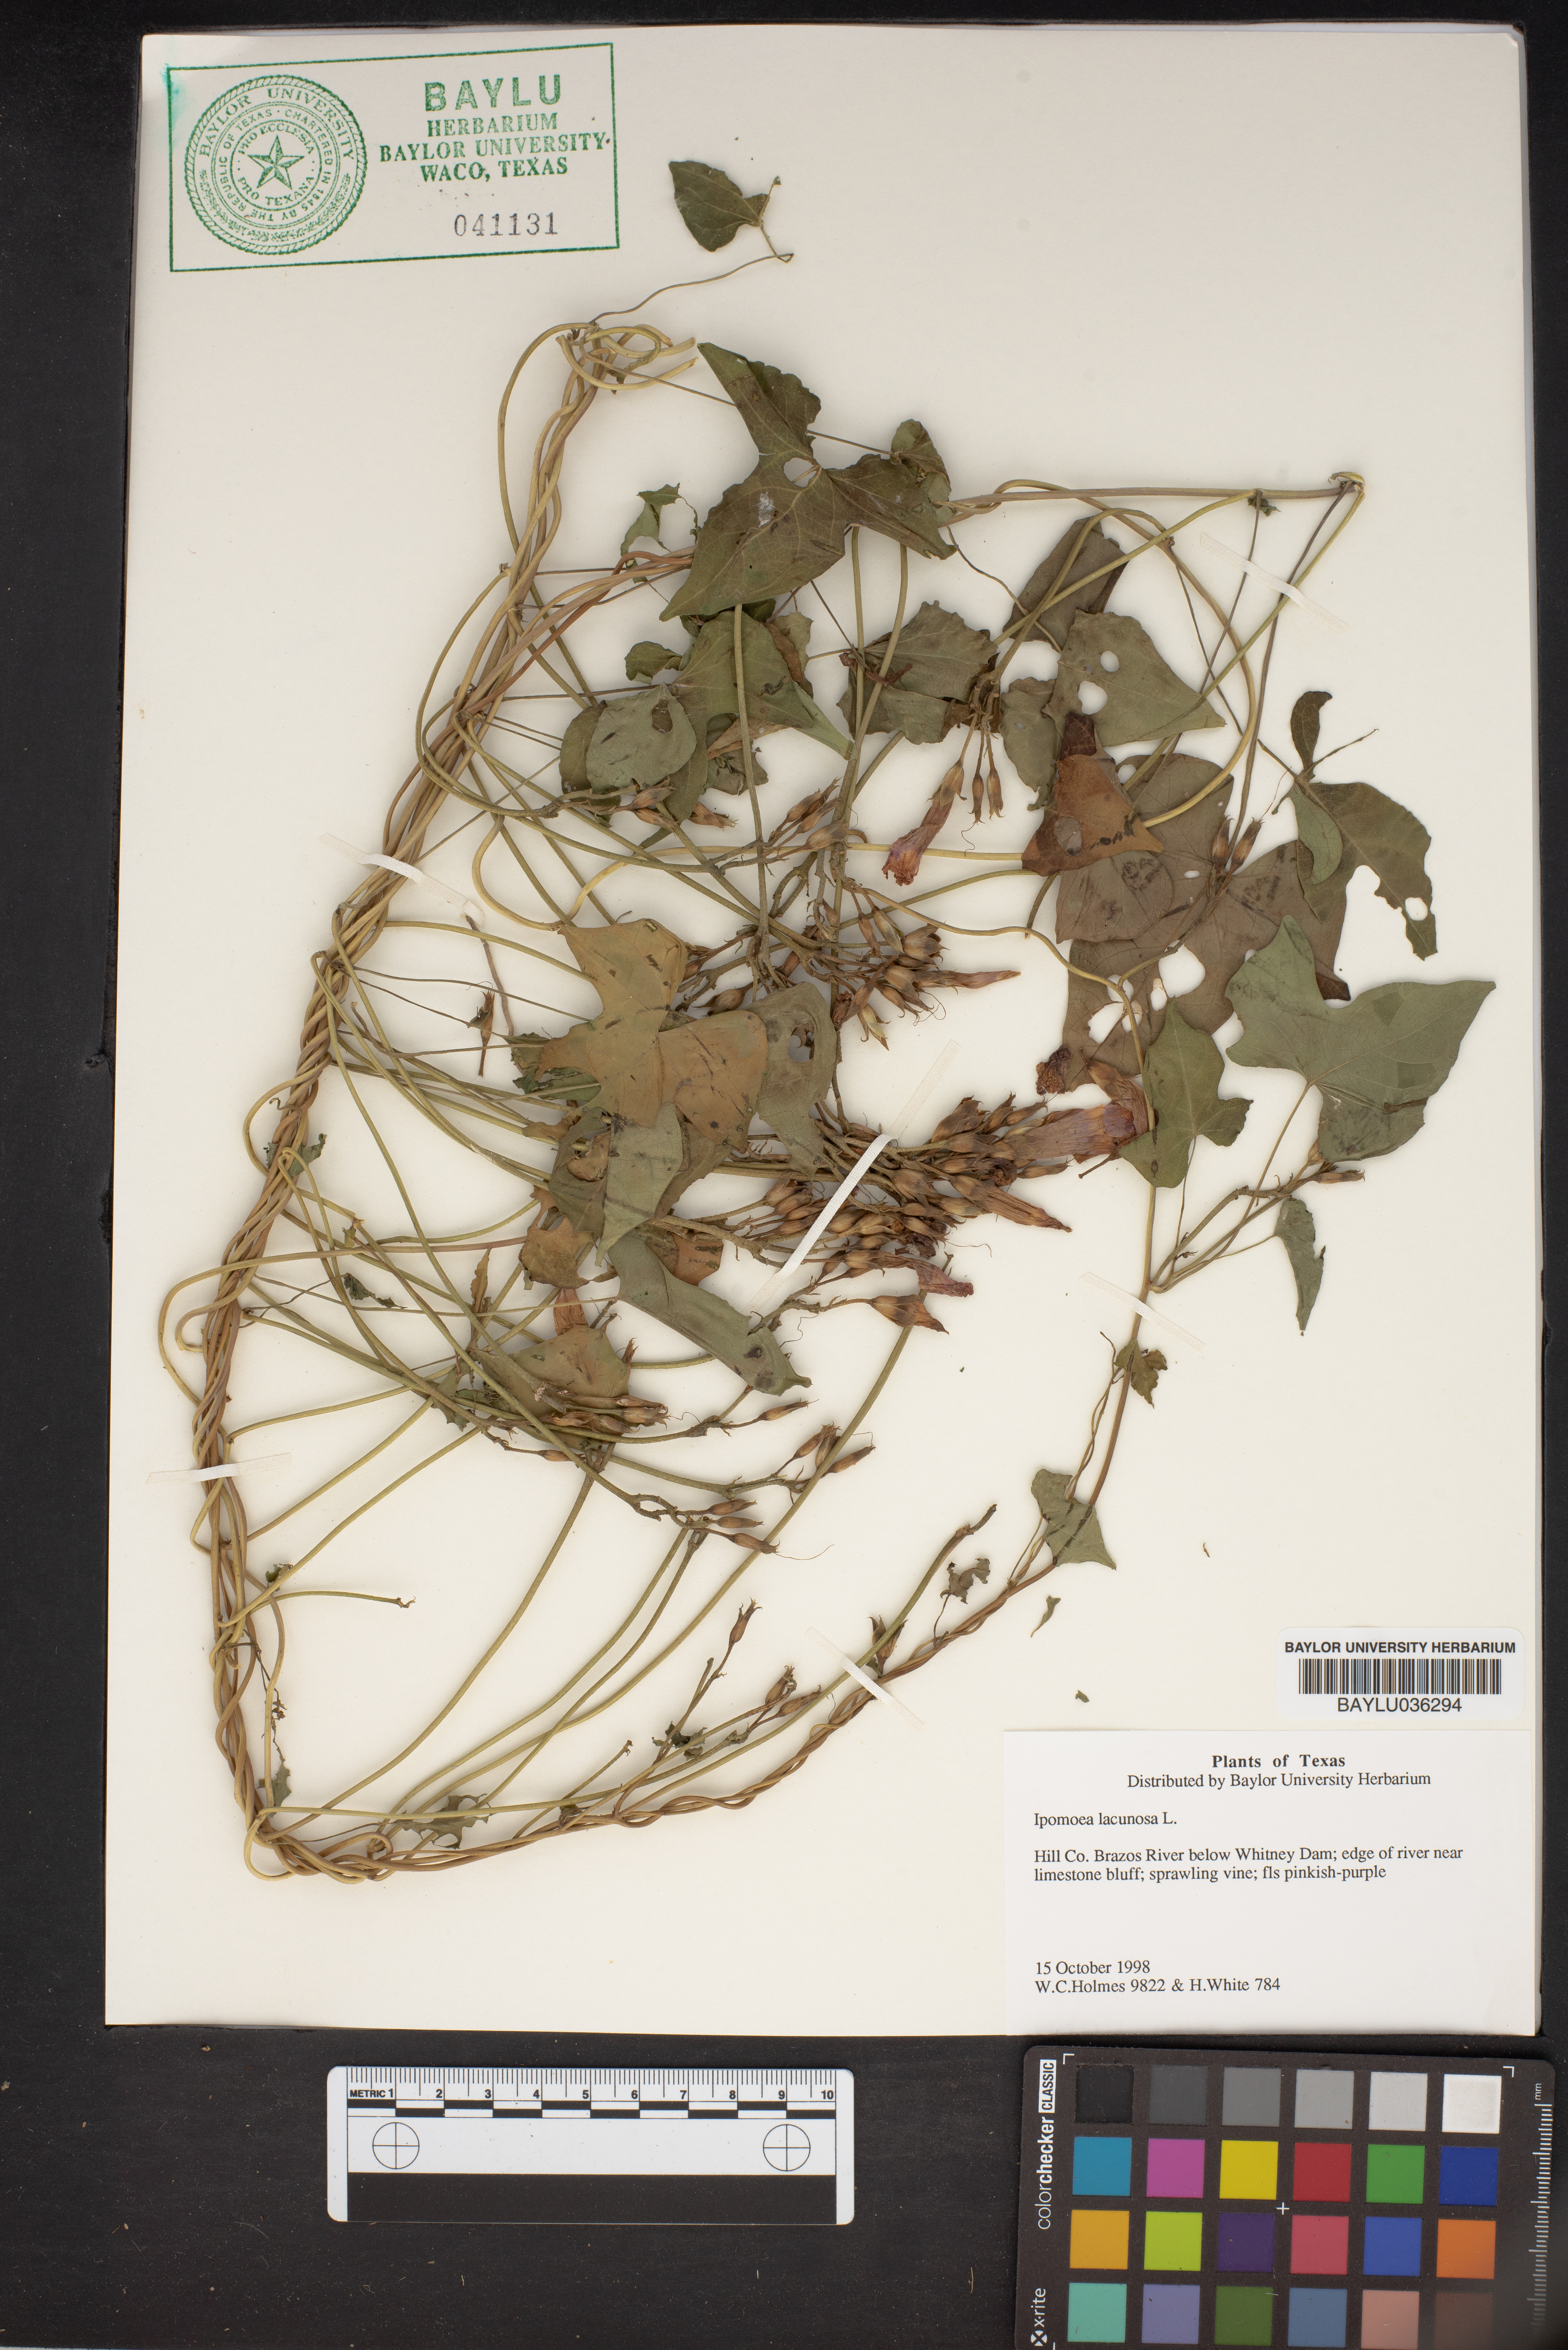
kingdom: Plantae
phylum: Tracheophyta
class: Magnoliopsida
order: Solanales
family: Convolvulaceae
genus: Ipomoea
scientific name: Ipomoea lacunosa
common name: White morning-glory
